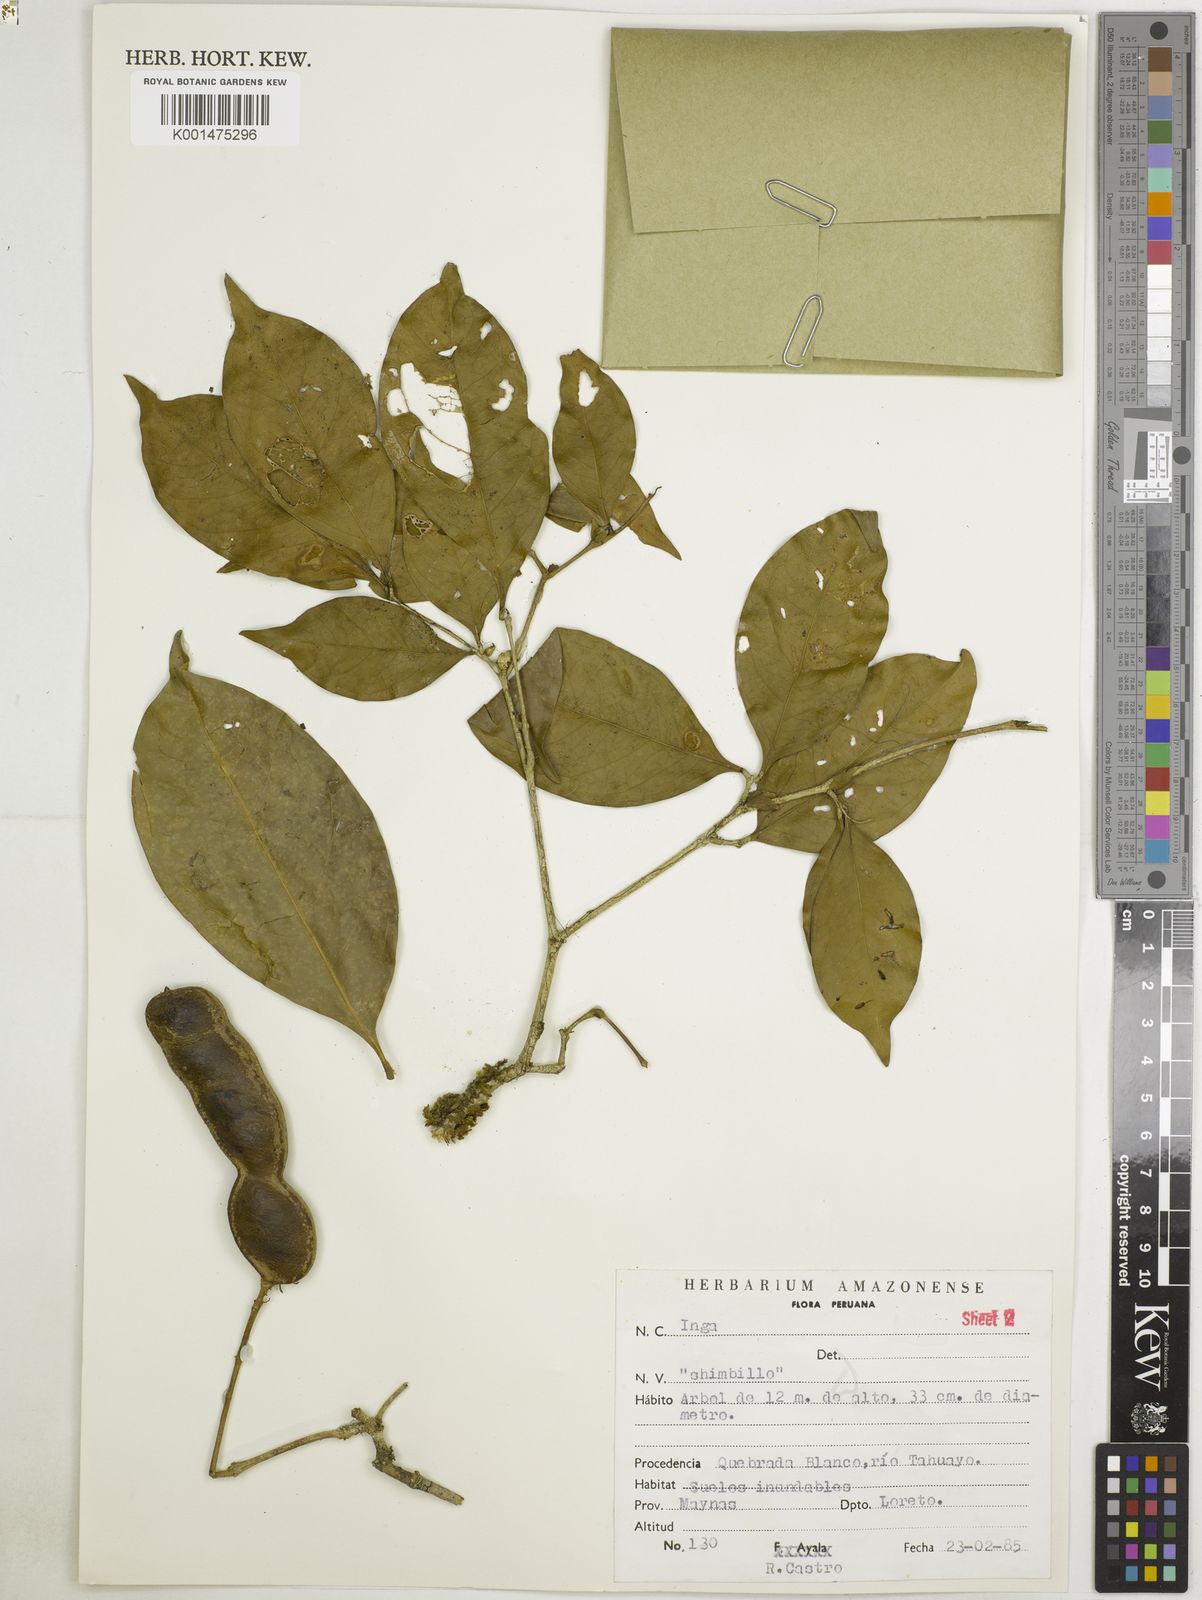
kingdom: Plantae
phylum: Tracheophyta
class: Magnoliopsida
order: Fabales
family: Fabaceae
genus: Inga
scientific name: Inga capitata
